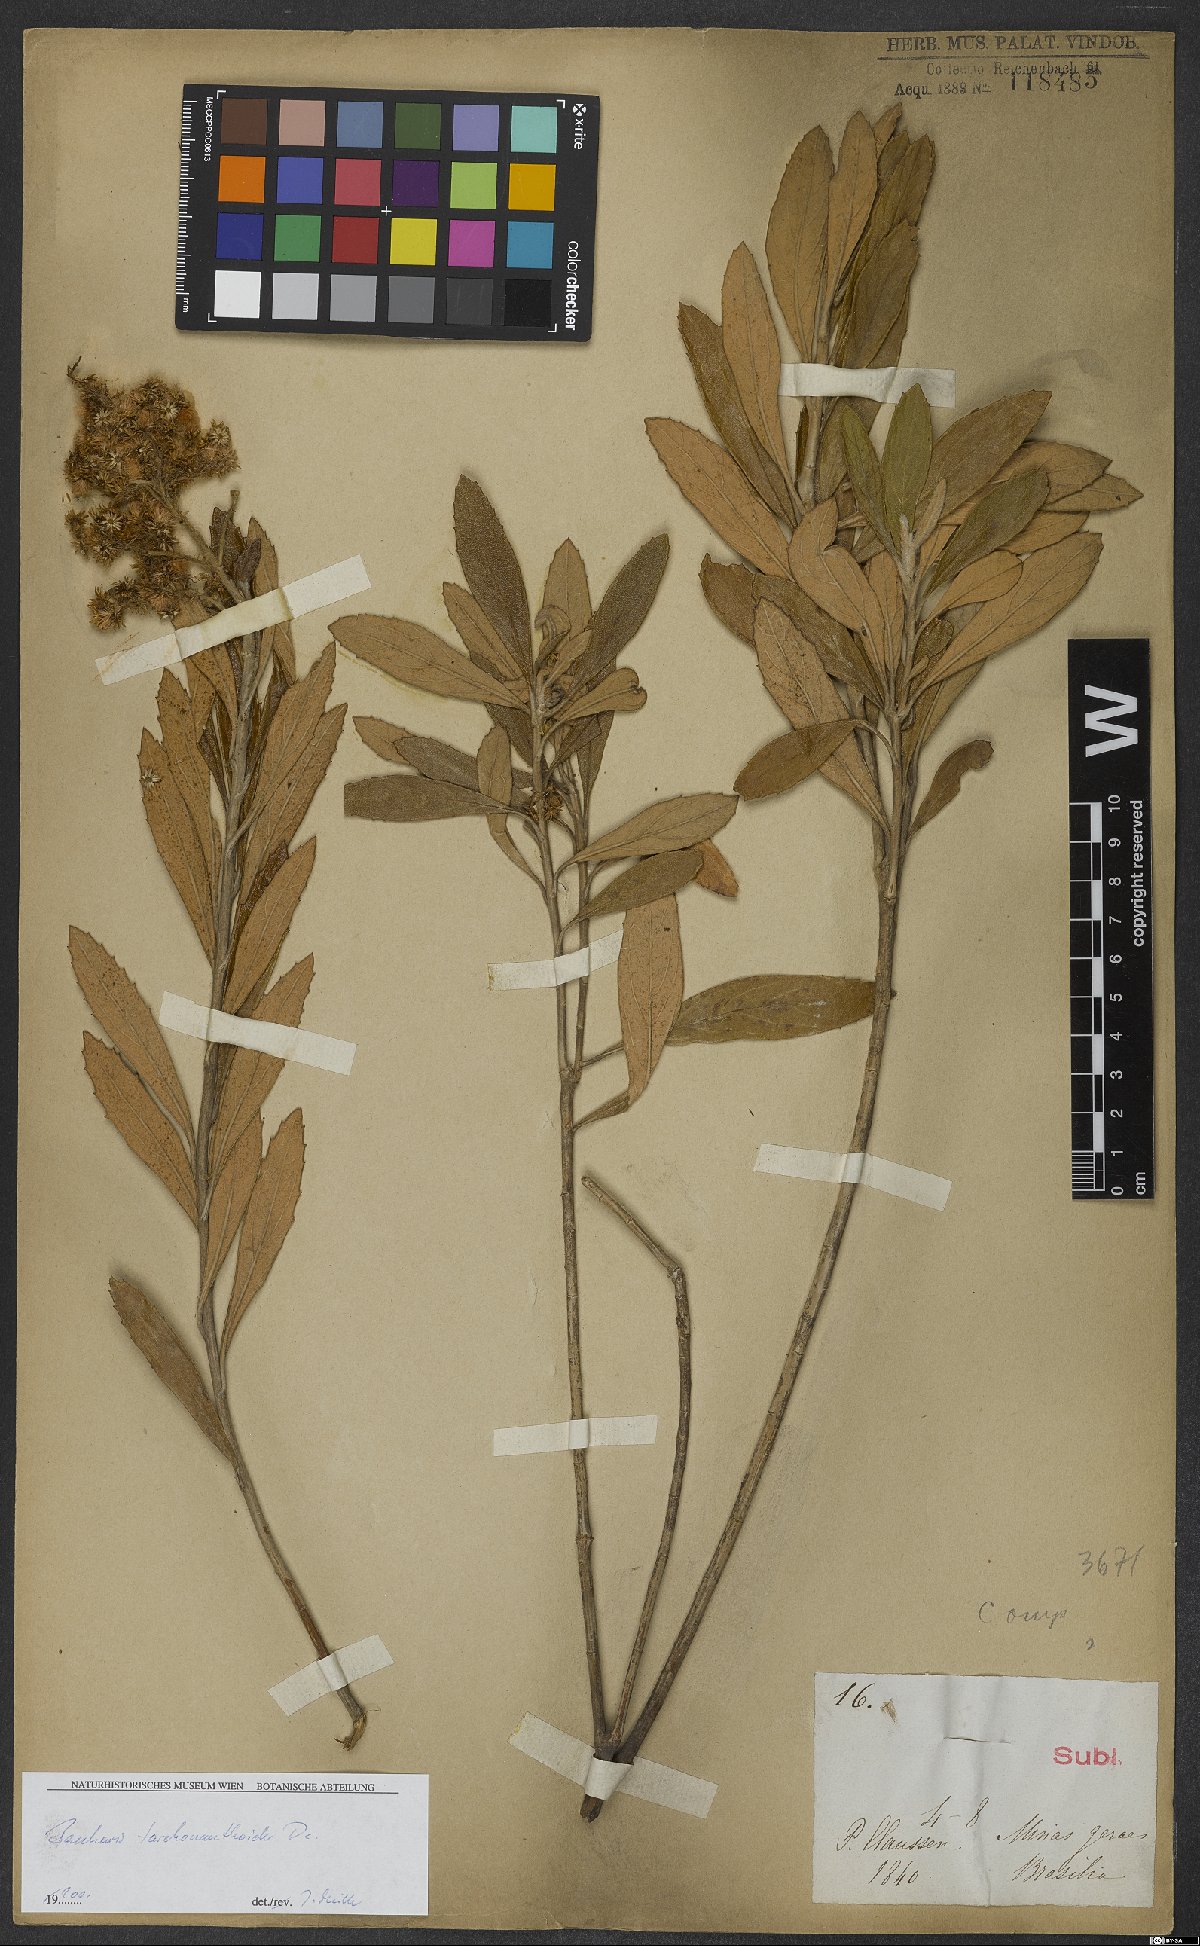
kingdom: Plantae
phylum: Tracheophyta
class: Magnoliopsida
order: Asterales
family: Asteraceae
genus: Baccharis
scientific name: Baccharis tarchonanthoides
